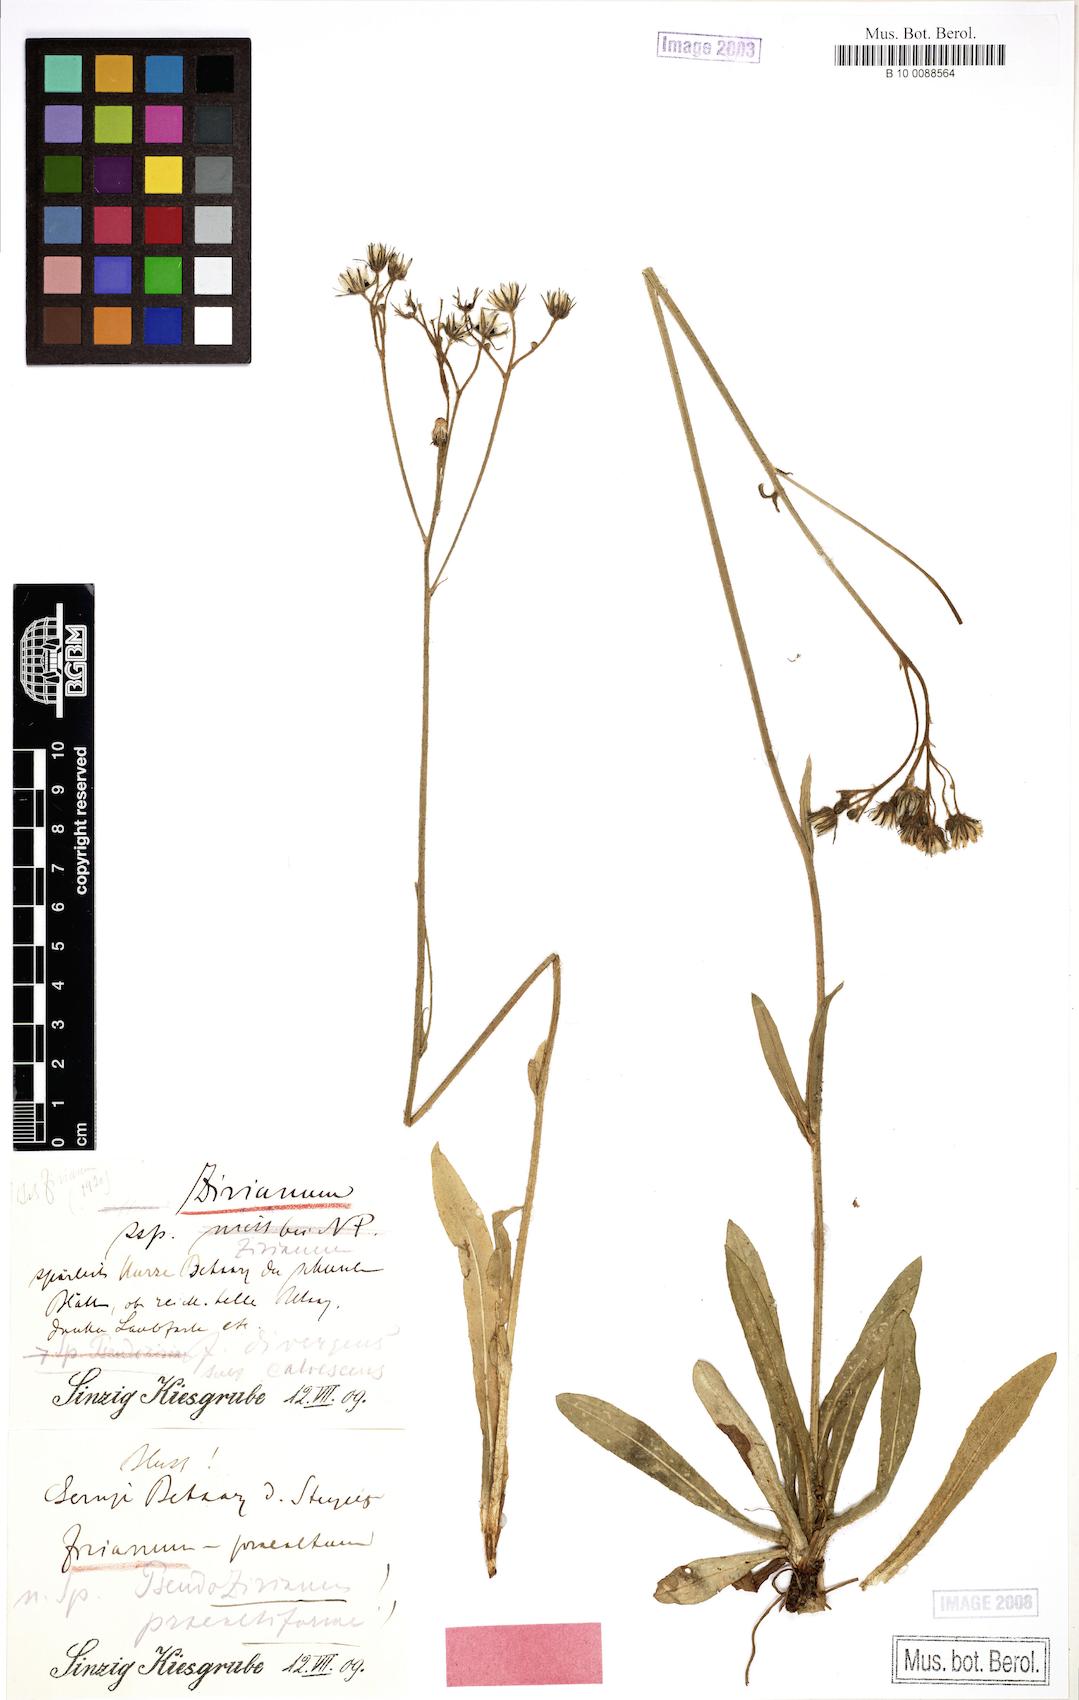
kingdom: Plantae
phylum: Tracheophyta
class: Magnoliopsida
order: Asterales
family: Asteraceae
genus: Pilosella
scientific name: Pilosella ziziana
